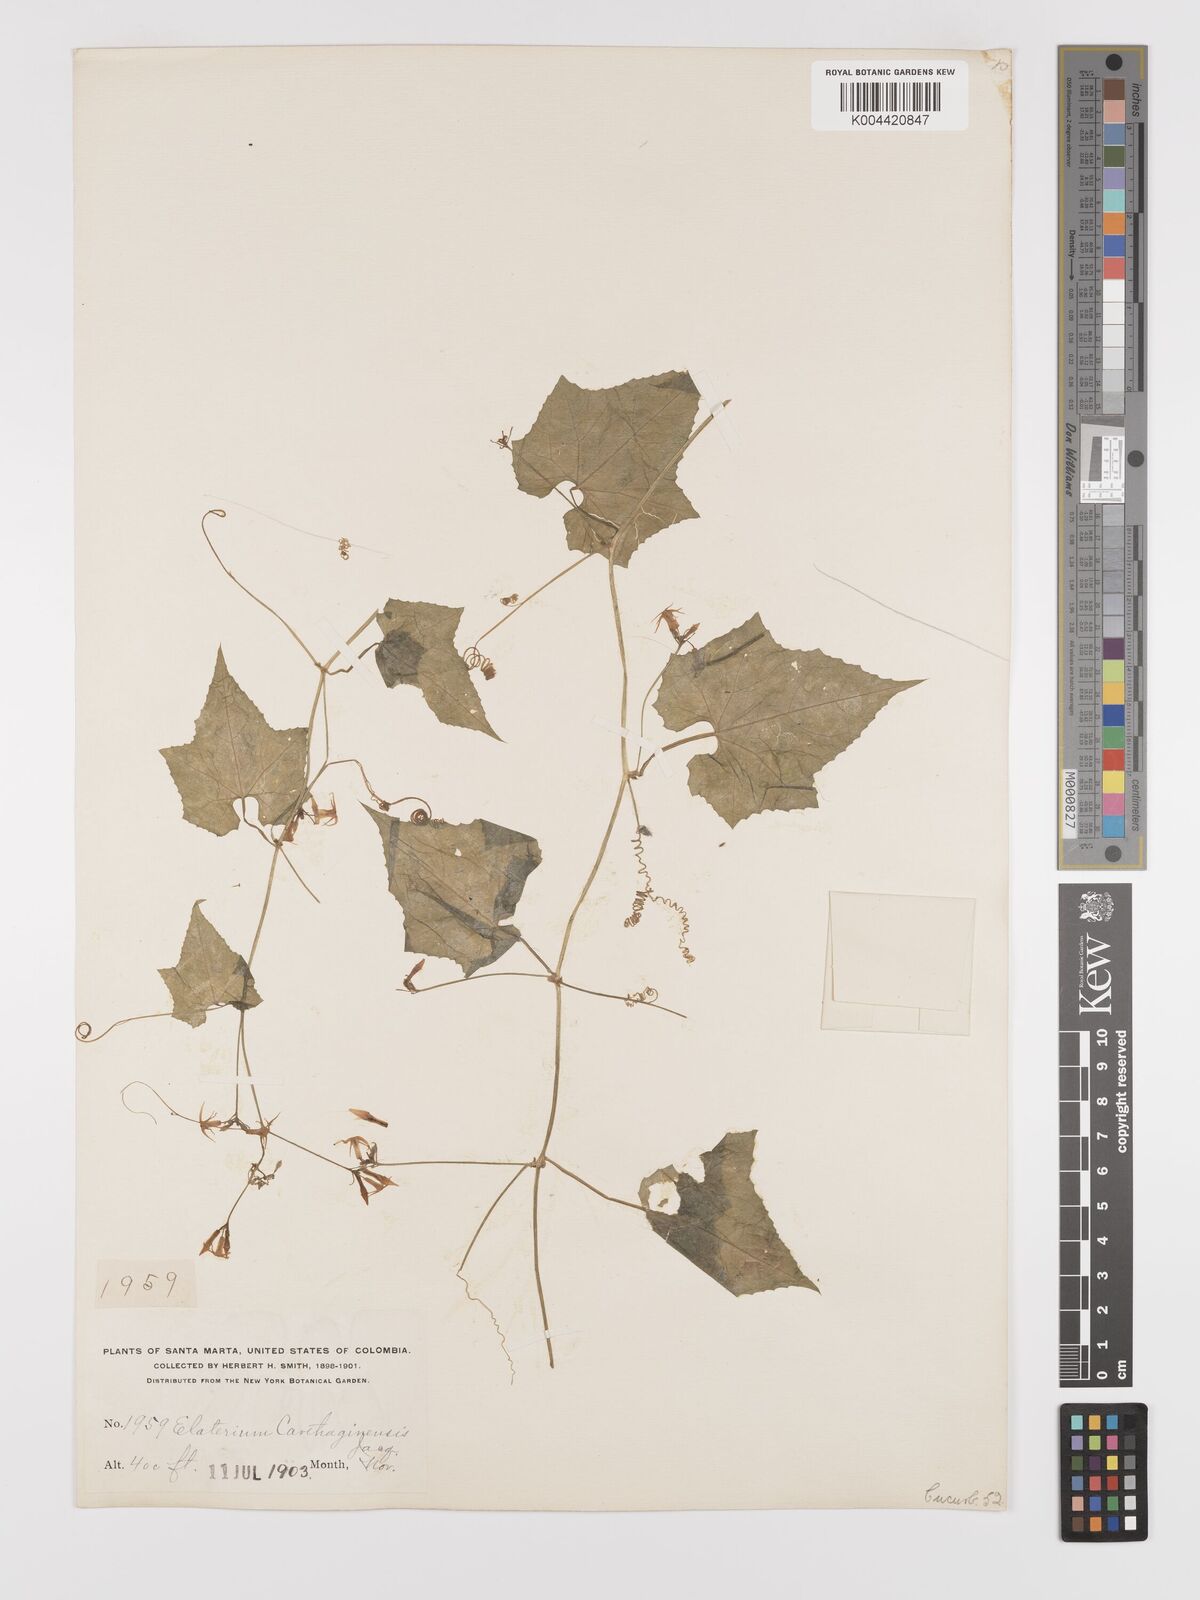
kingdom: Plantae
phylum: Tracheophyta
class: Magnoliopsida
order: Cucurbitales
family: Cucurbitaceae
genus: Cyclanthera
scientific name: Cyclanthera carthagenensis
